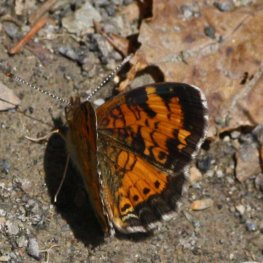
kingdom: Animalia
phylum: Arthropoda
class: Insecta
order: Lepidoptera
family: Nymphalidae
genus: Phyciodes
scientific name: Phyciodes tharos
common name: Northern Crescent
